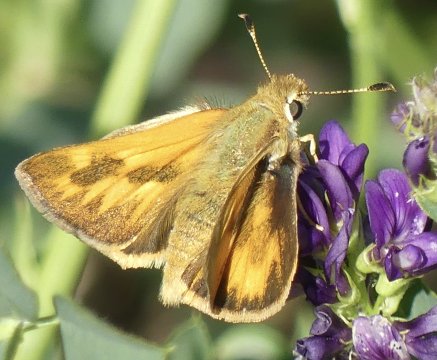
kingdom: Animalia
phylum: Arthropoda
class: Insecta
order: Lepidoptera
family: Hesperiidae
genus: Ochlodes
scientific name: Ochlodes sylvanoides
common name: Woodland Skipper
